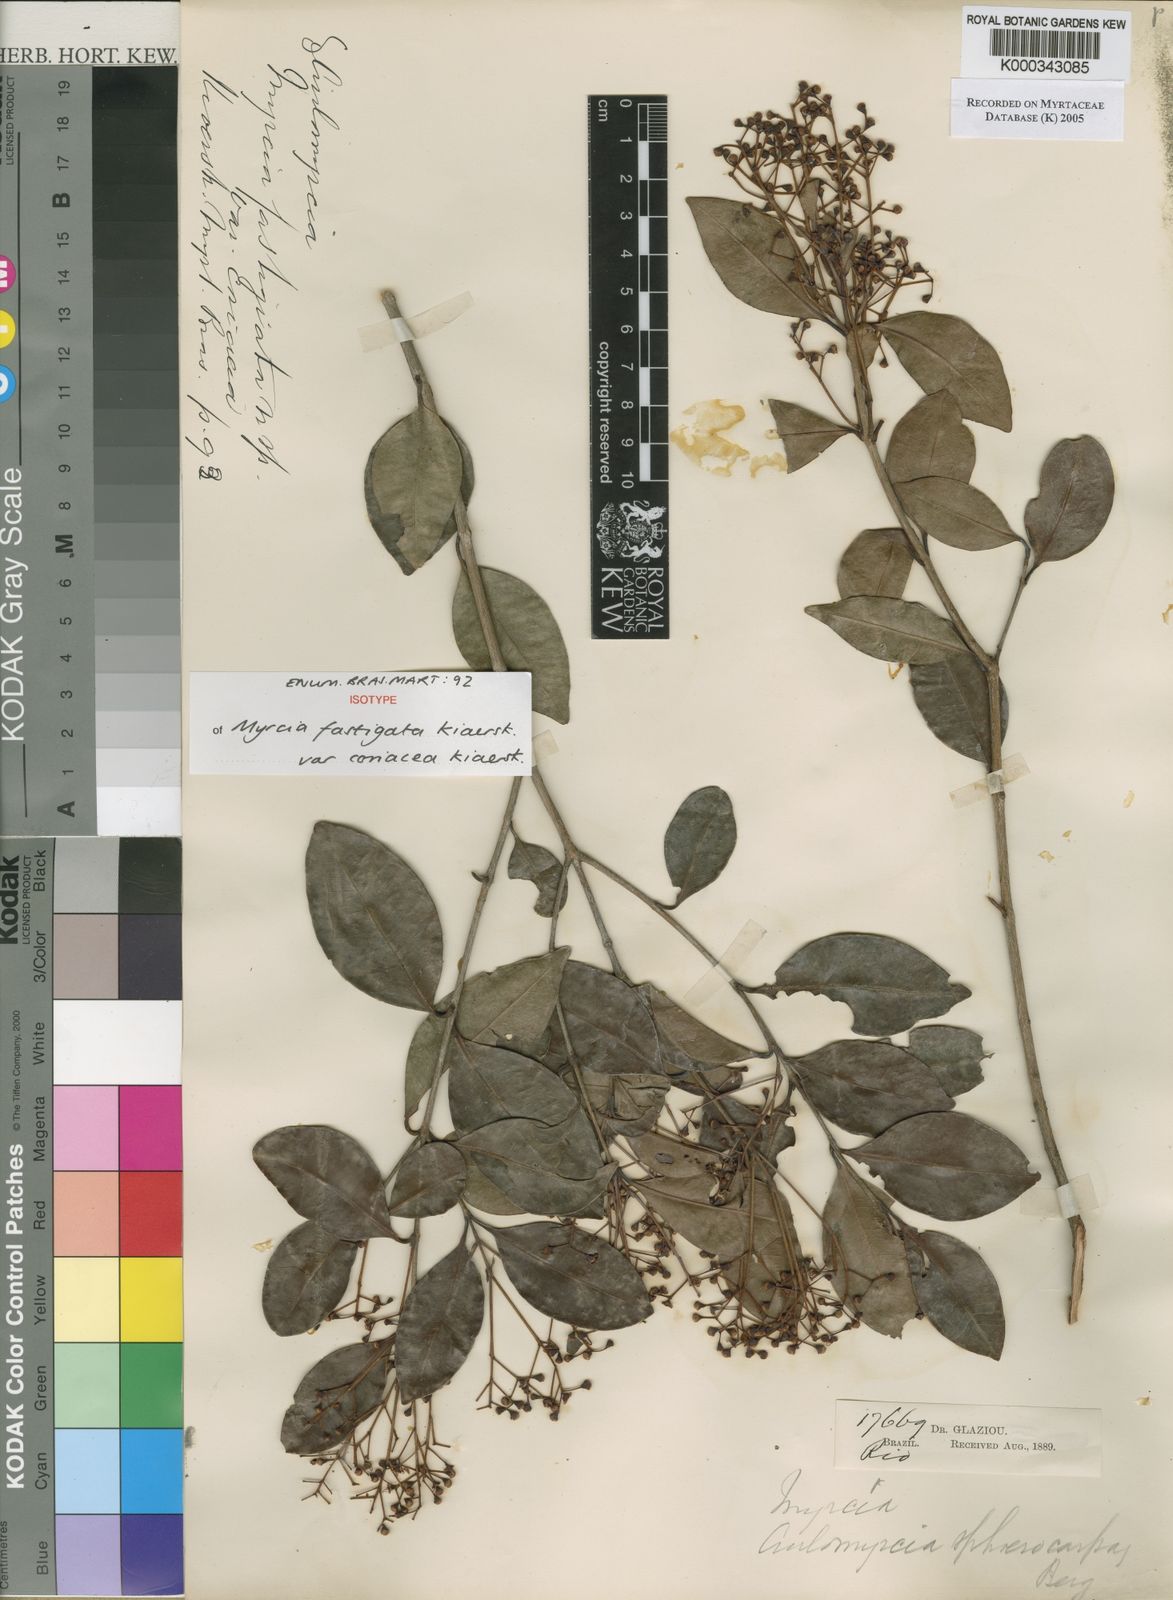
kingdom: Plantae
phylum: Tracheophyta
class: Magnoliopsida
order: Myrtales
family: Myrtaceae
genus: Myrcia
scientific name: Myrcia guianensis
